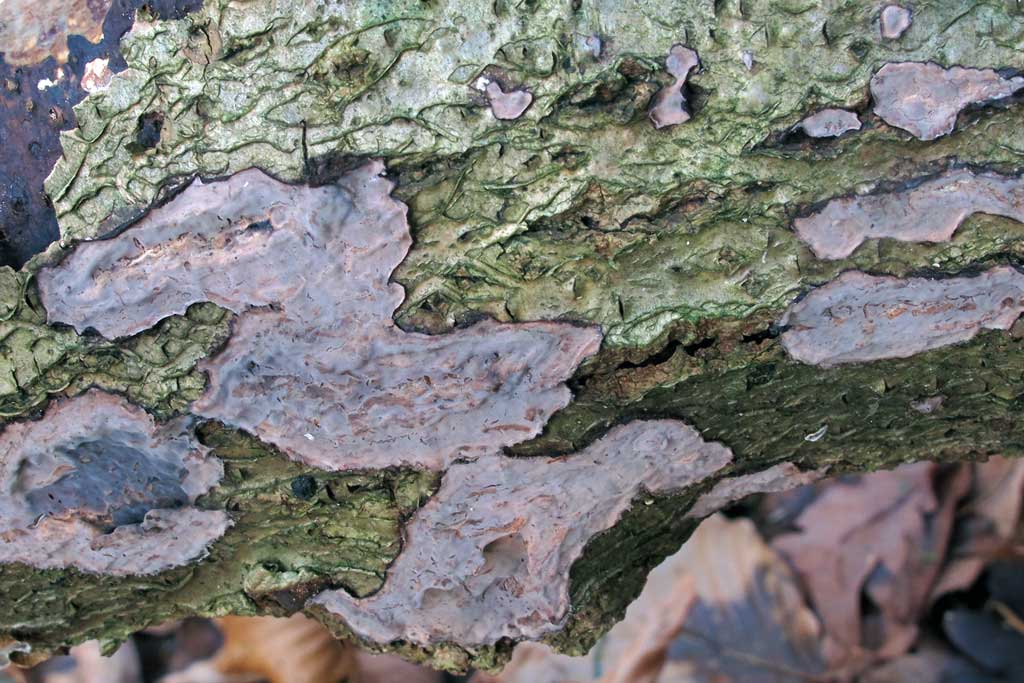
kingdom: Fungi
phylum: Basidiomycota
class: Agaricomycetes
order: Russulales
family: Peniophoraceae
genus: Peniophora
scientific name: Peniophora quercina
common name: ege-voksskind
